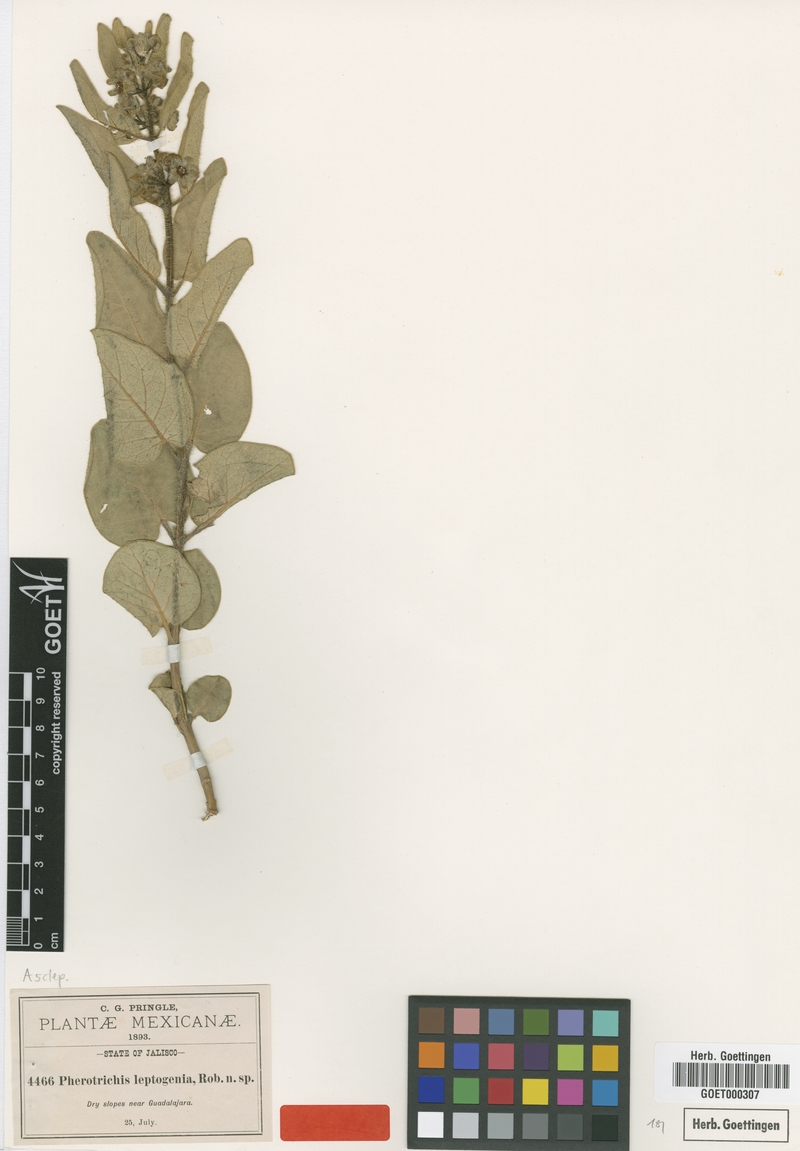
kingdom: Plantae
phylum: Tracheophyta
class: Magnoliopsida
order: Gentianales
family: Apocynaceae
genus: Pherotrichis
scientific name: Pherotrichis leptogenia
